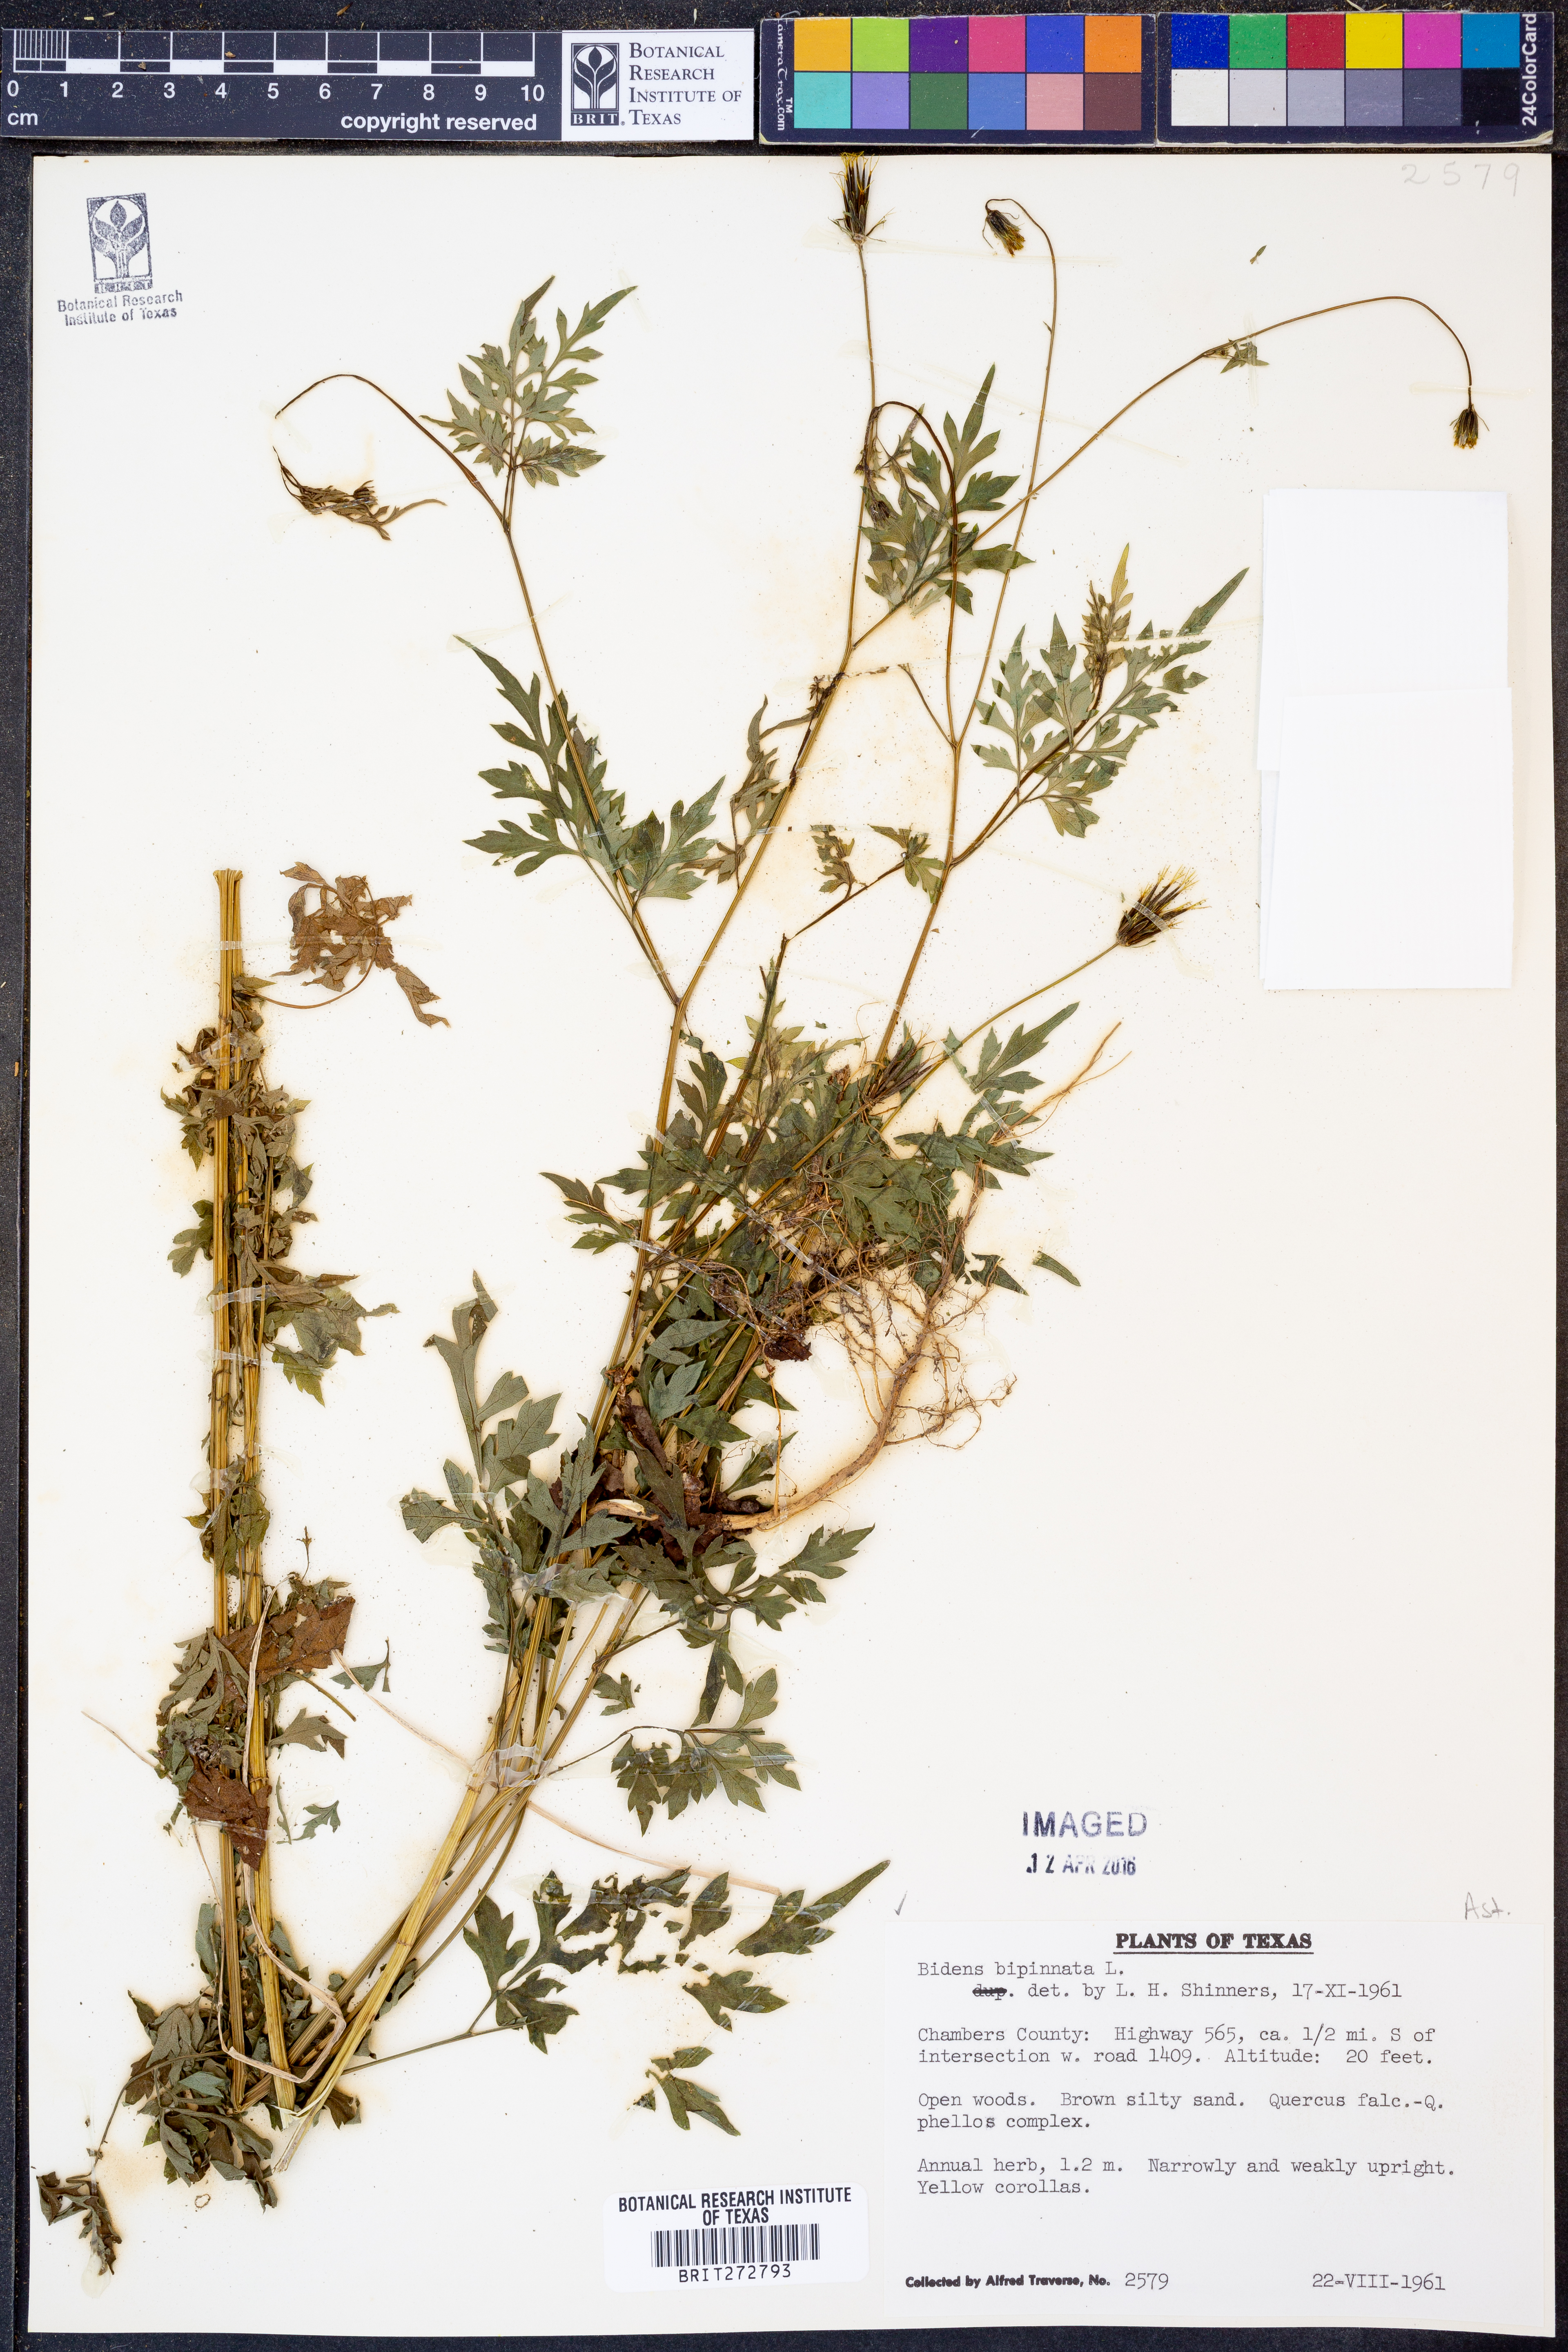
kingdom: Plantae
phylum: Tracheophyta
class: Magnoliopsida
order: Asterales
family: Asteraceae
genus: Bidens
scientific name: Bidens bipinnata
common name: Spanish-needles
